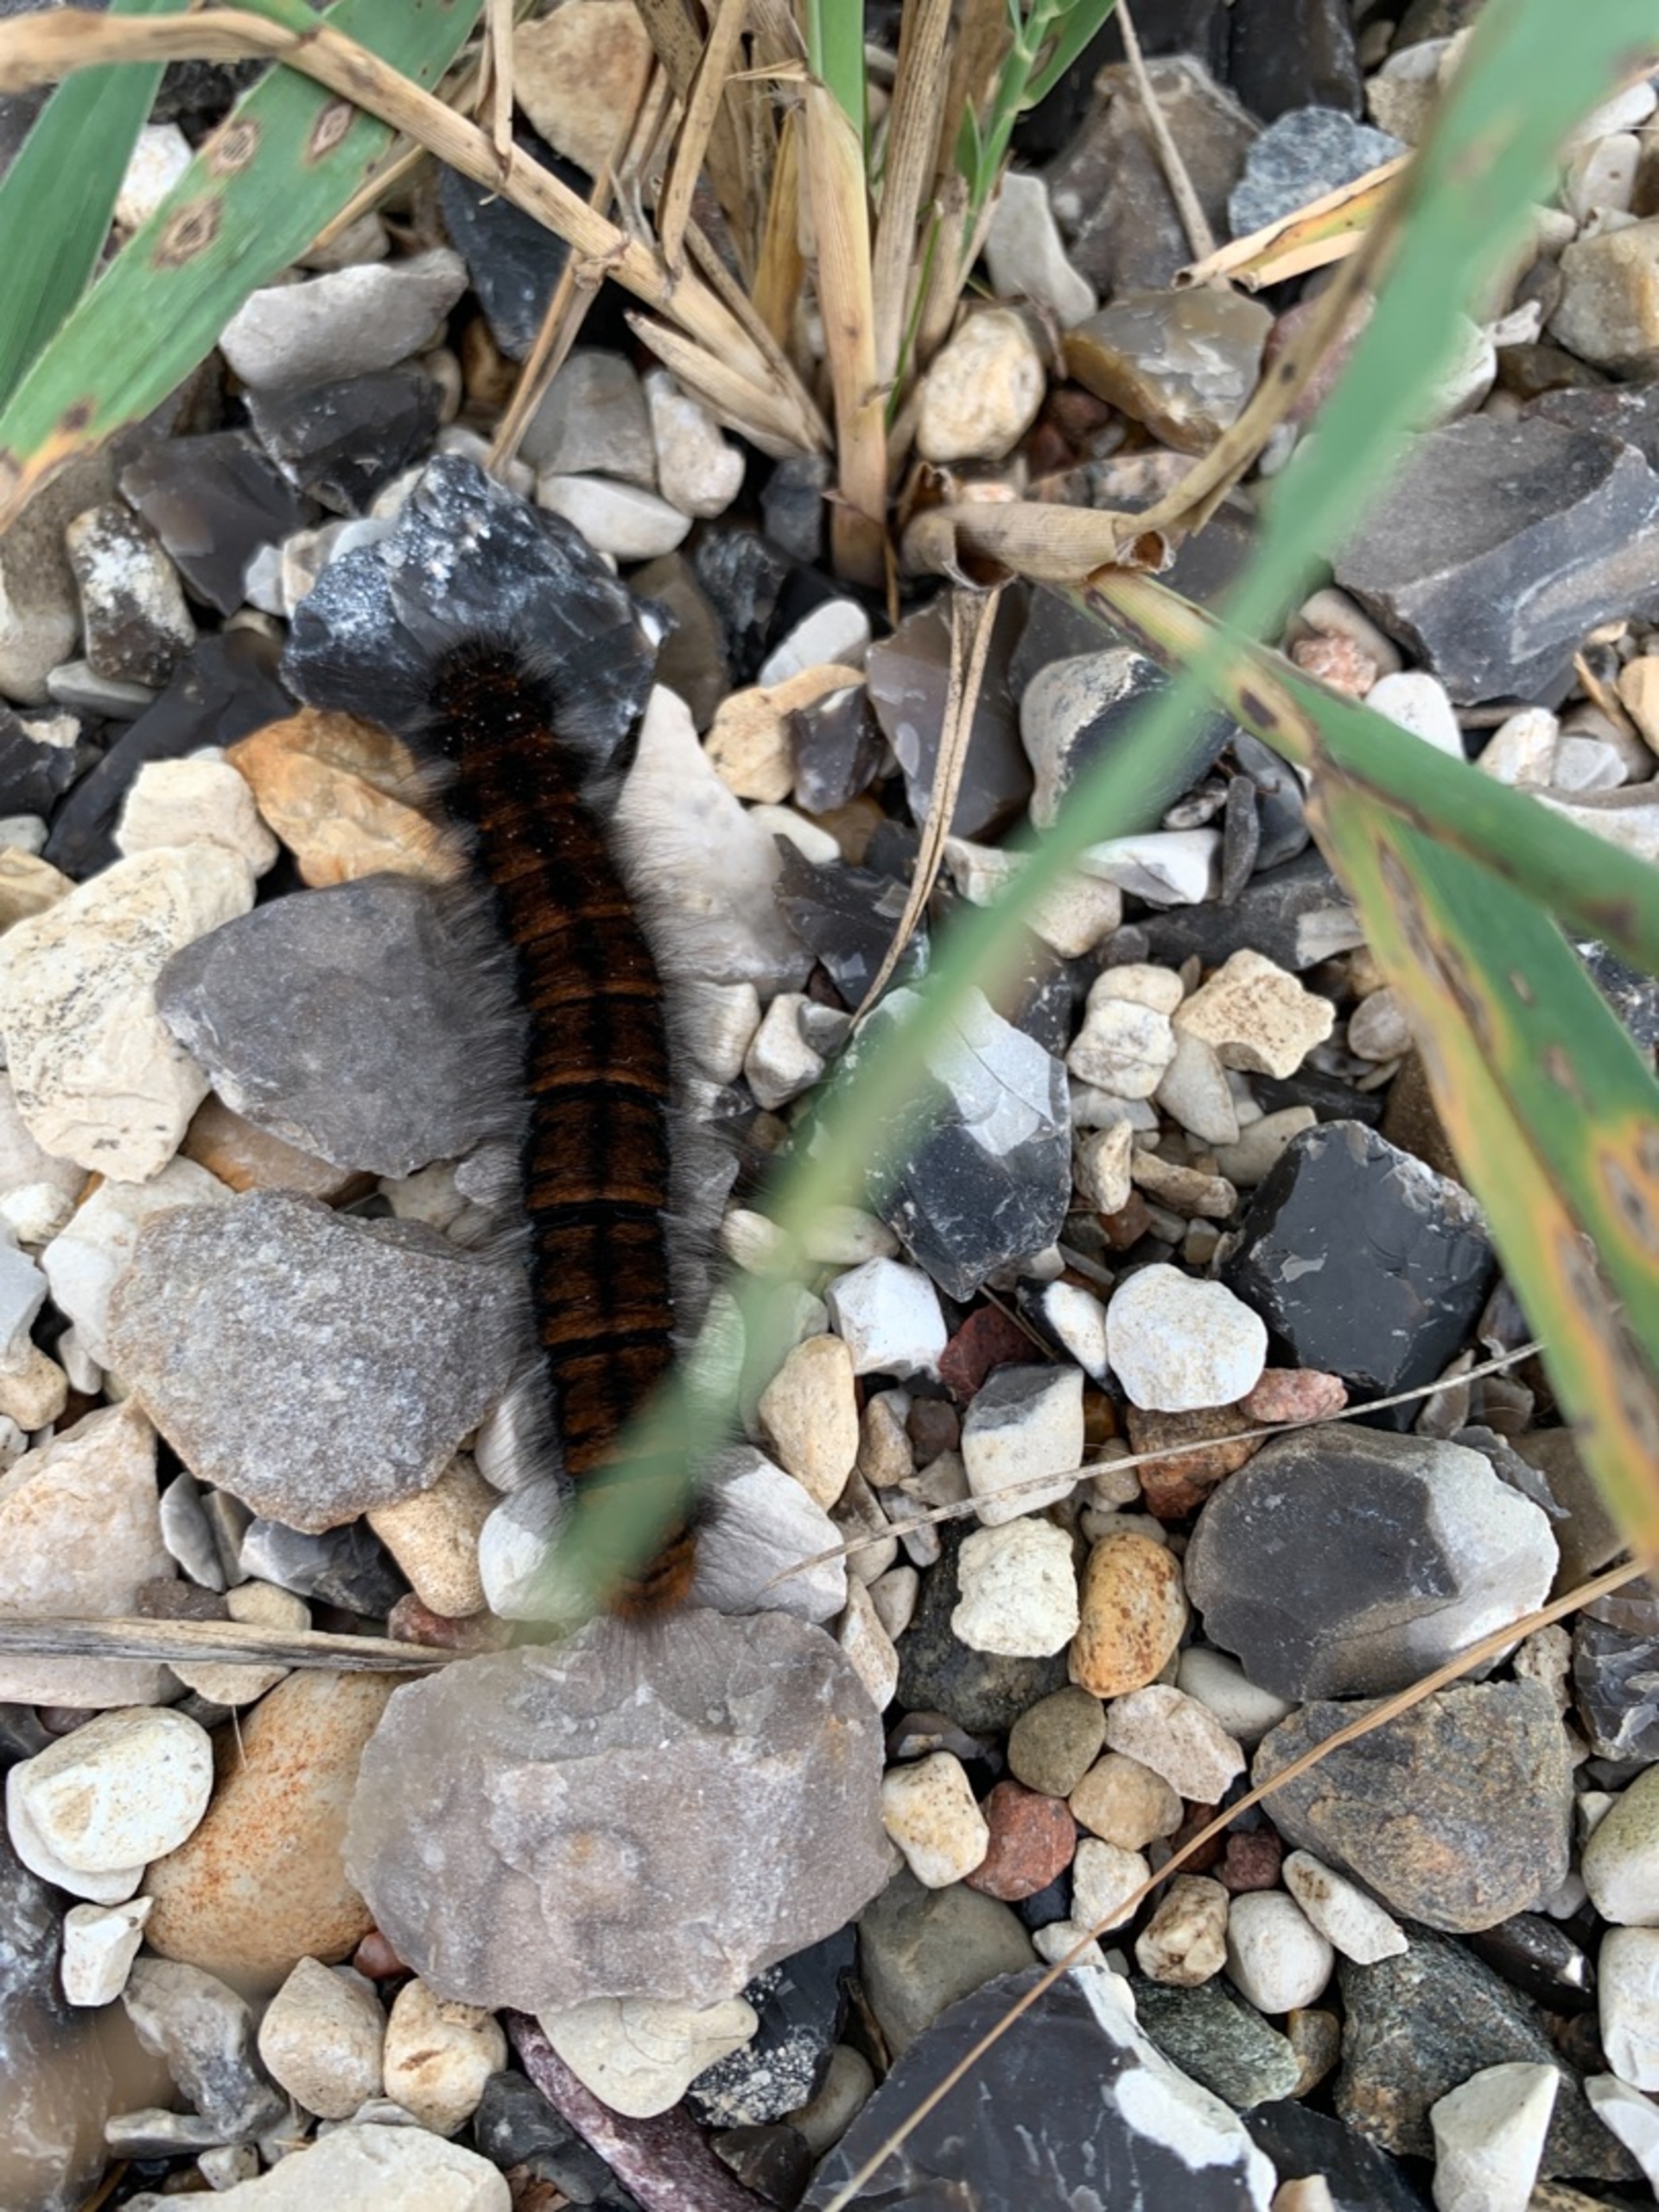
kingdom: Animalia
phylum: Arthropoda
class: Insecta
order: Lepidoptera
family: Lasiocampidae
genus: Macrothylacia
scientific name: Macrothylacia rubi
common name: Brombærspinder
